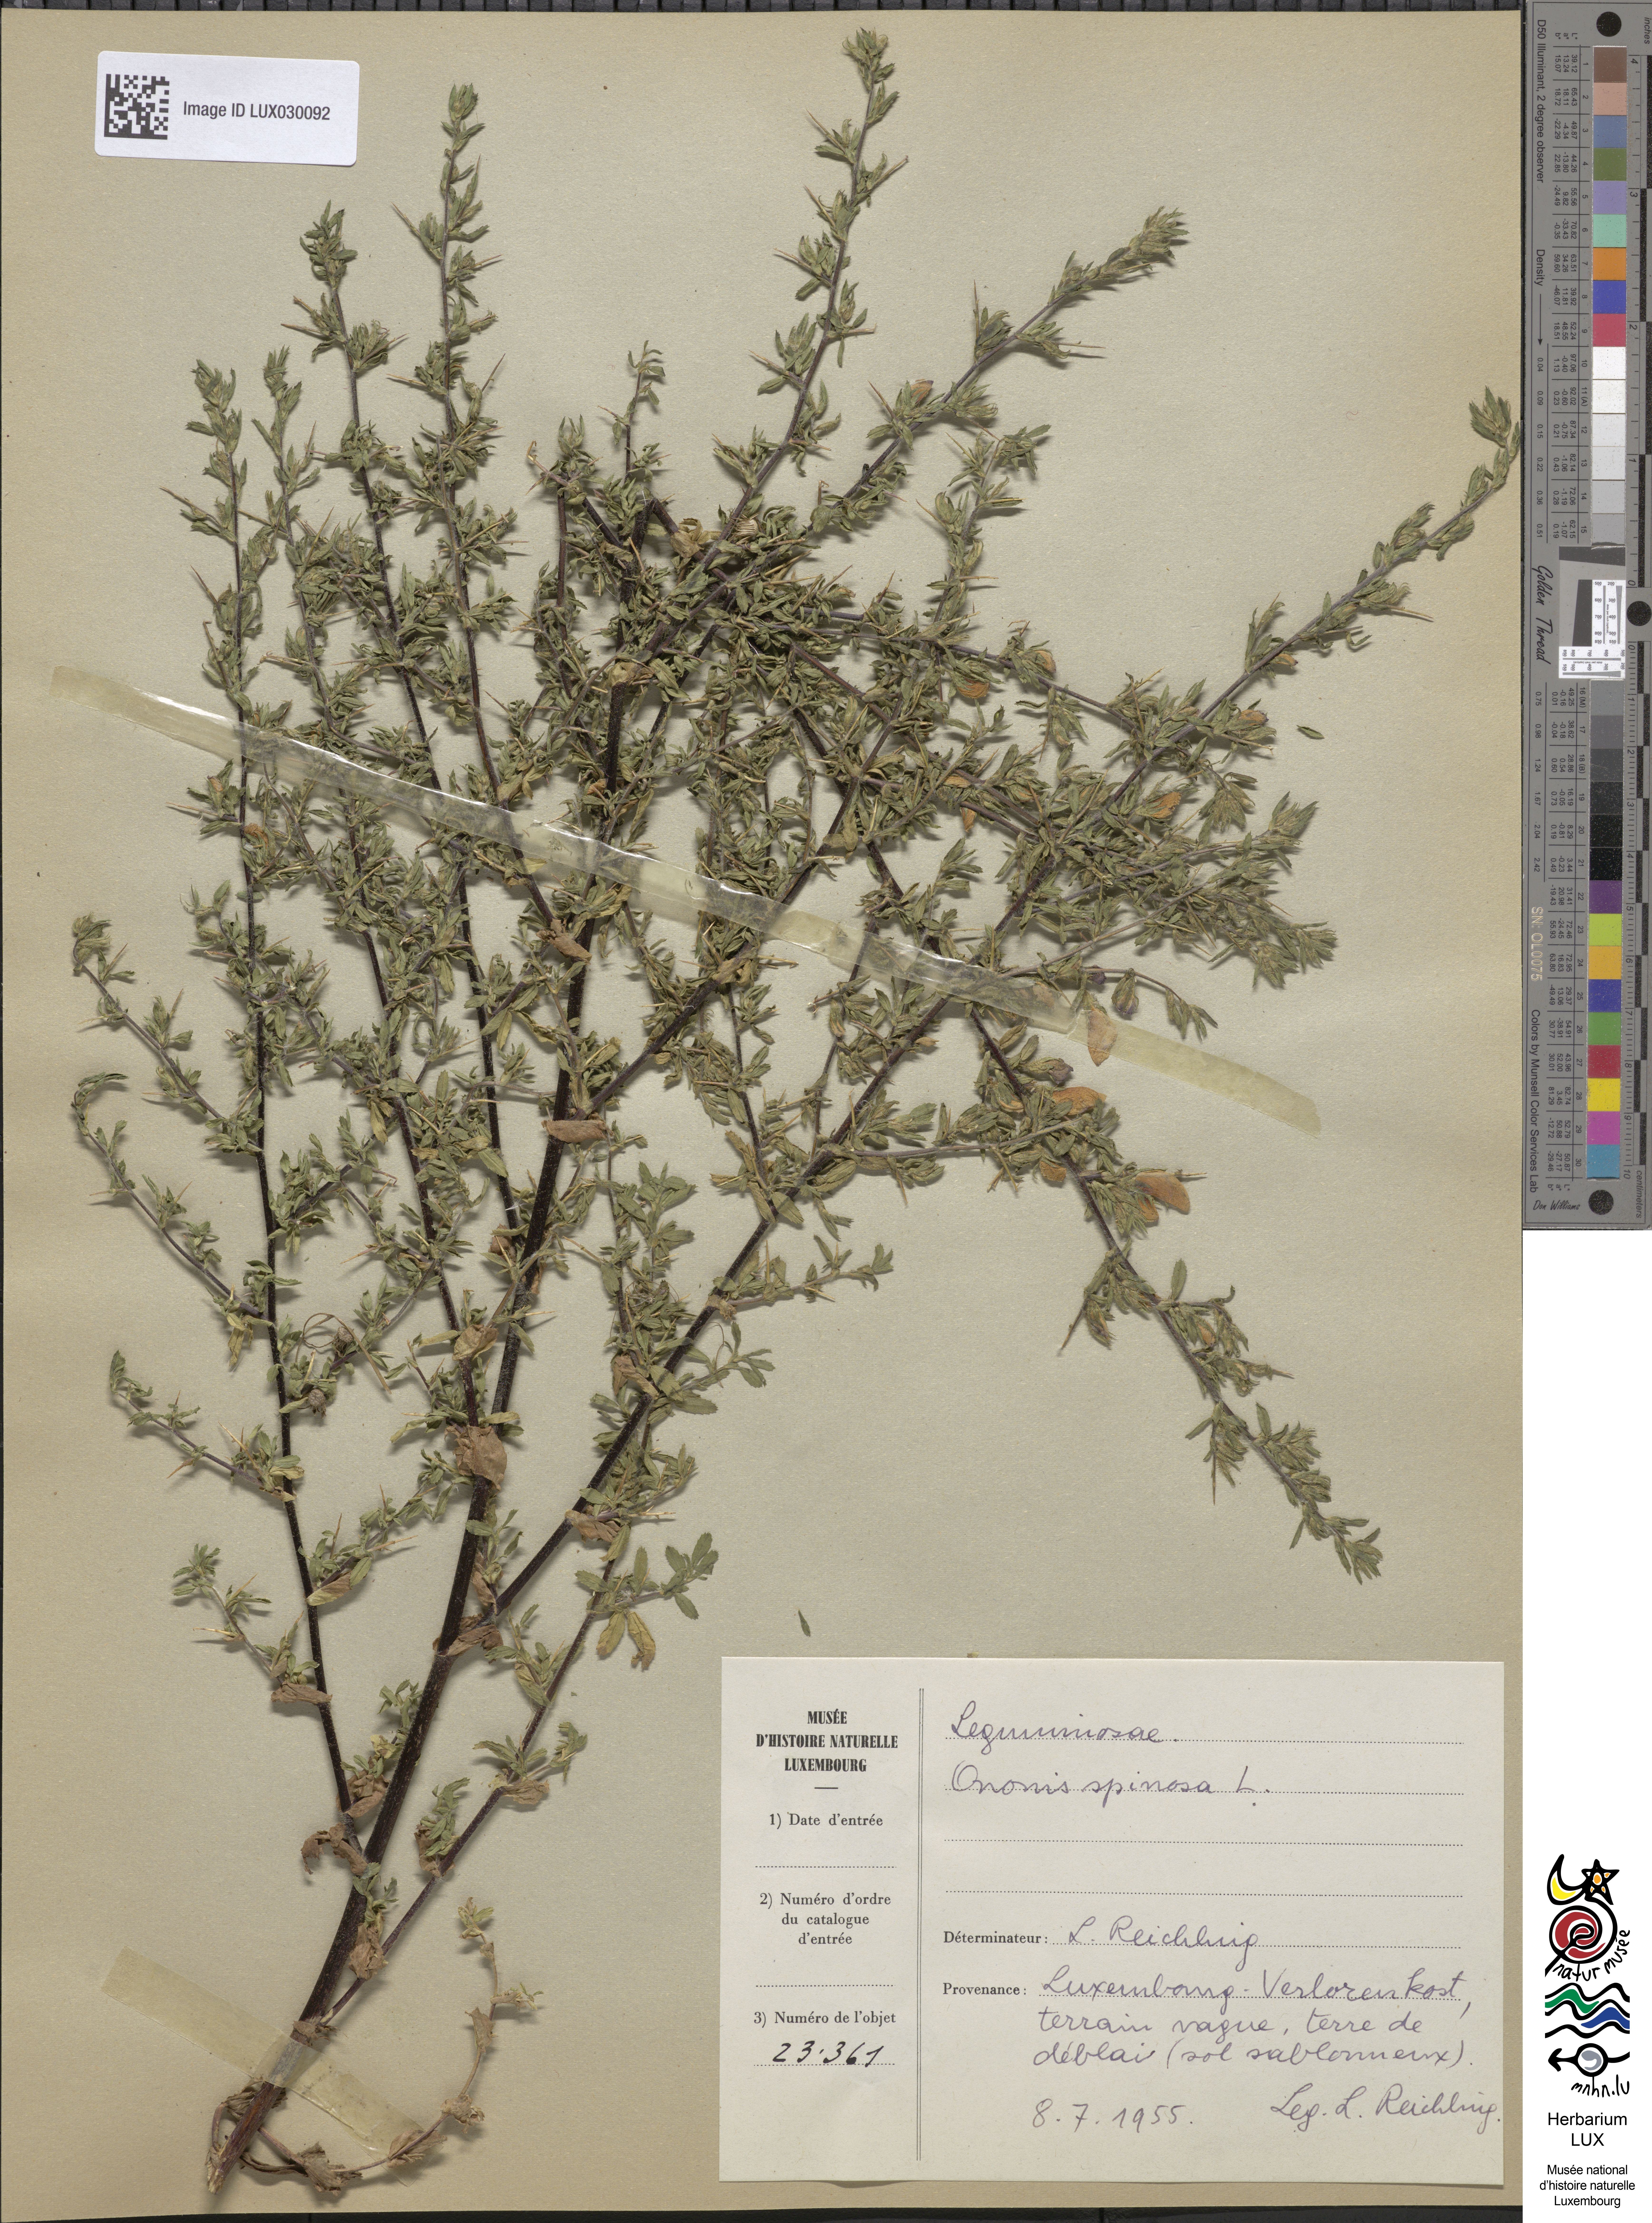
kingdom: Plantae
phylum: Tracheophyta
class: Magnoliopsida
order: Fabales
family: Fabaceae
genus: Ononis
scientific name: Ononis spinosa
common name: Spiny restharrow
